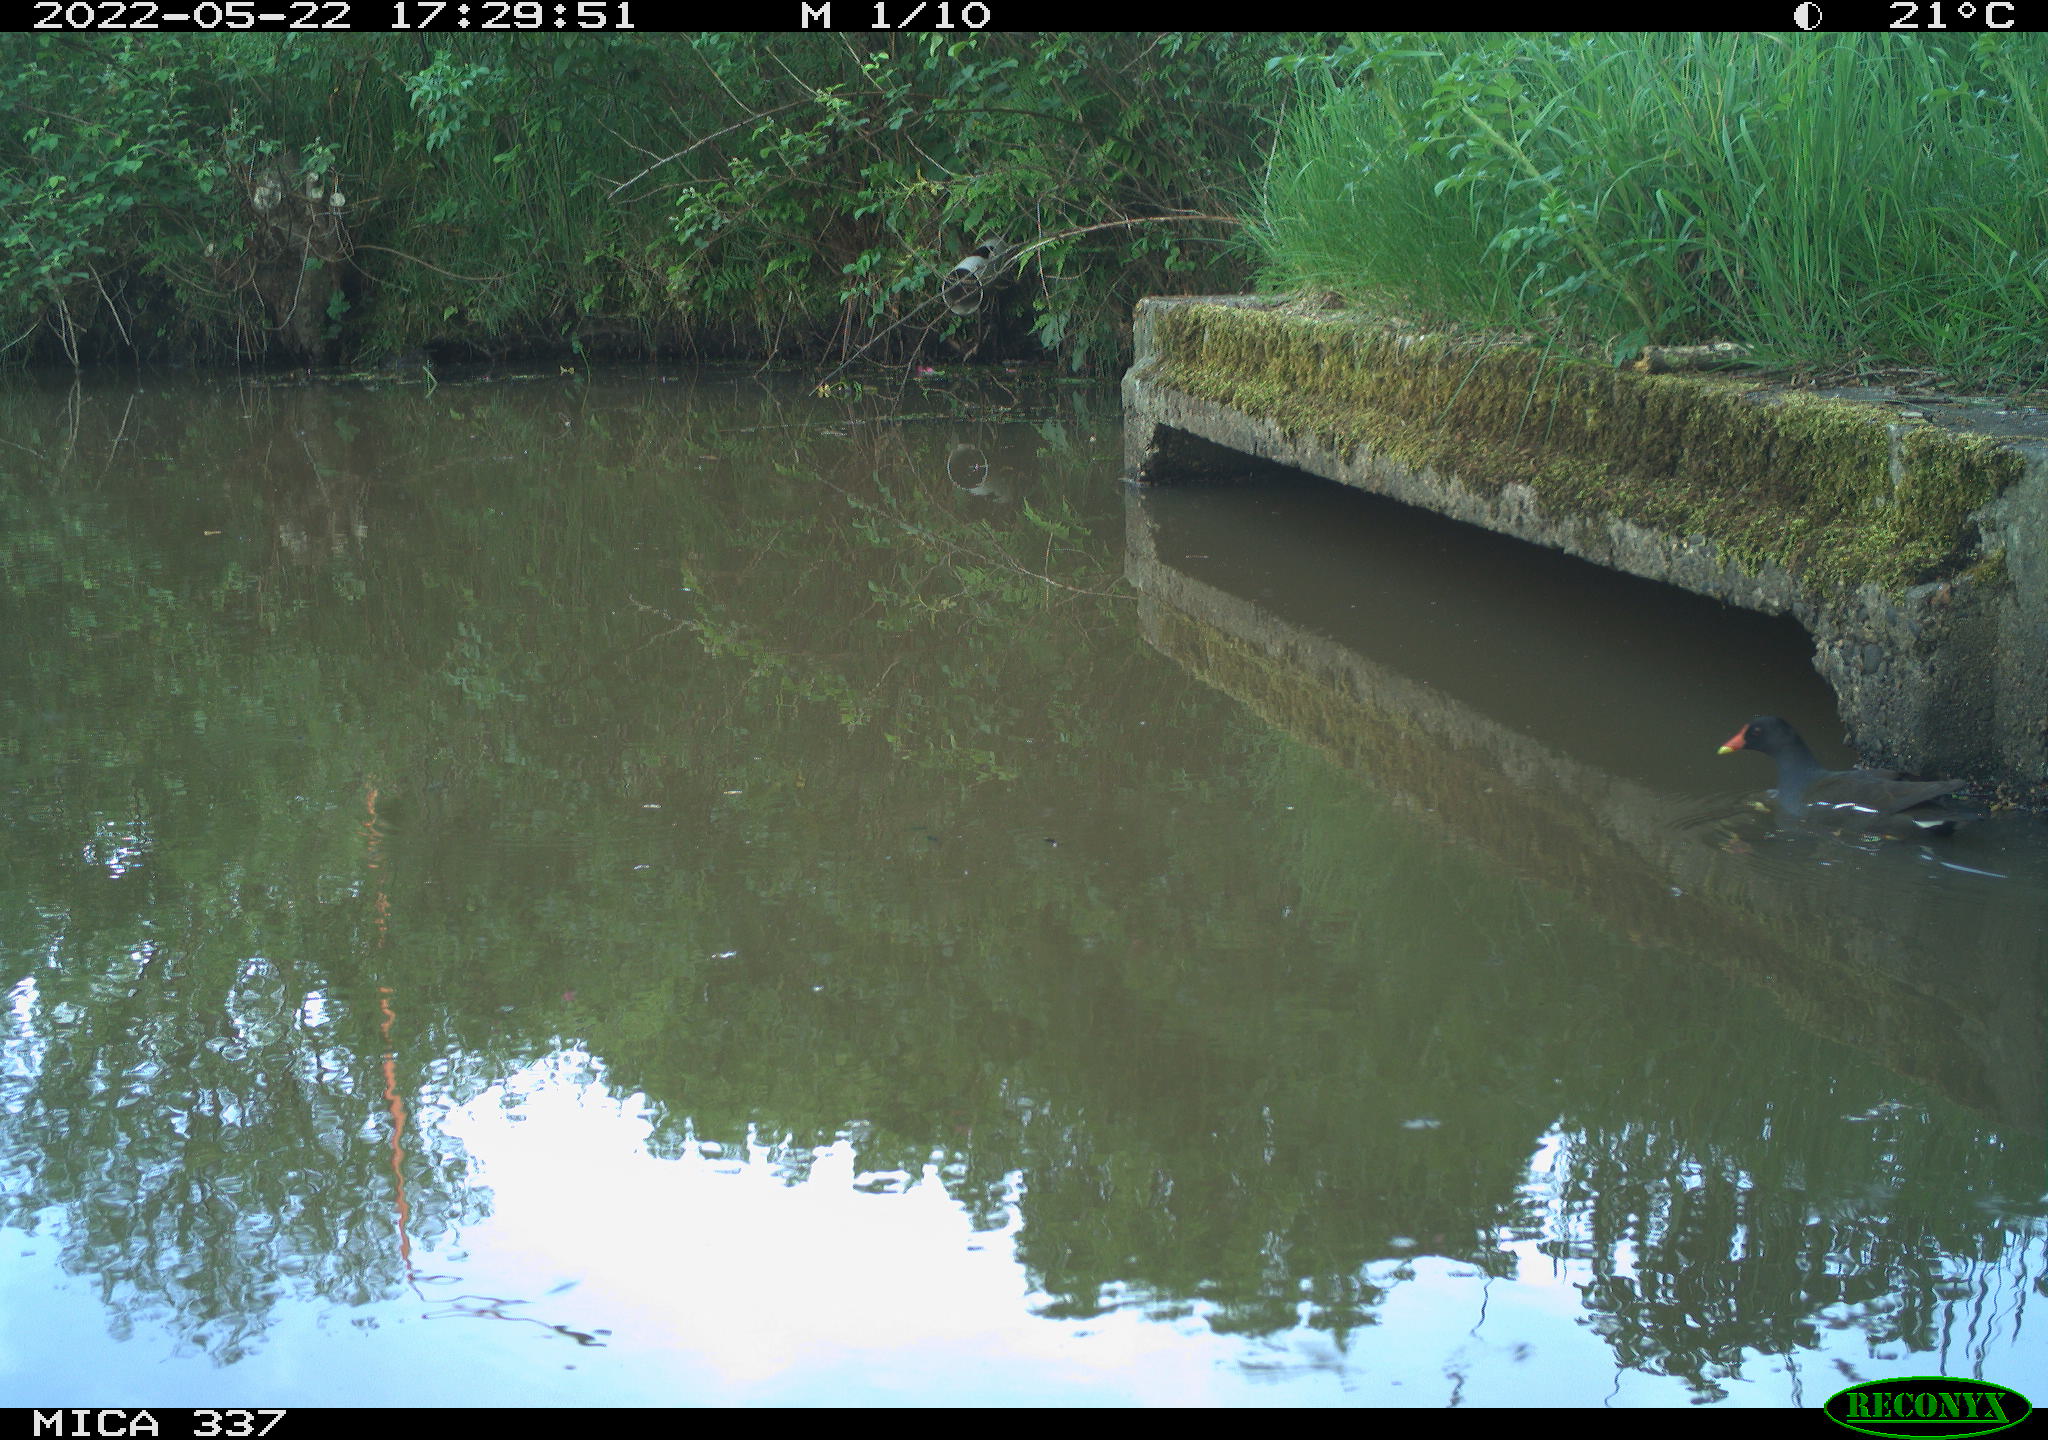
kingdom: Animalia
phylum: Chordata
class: Aves
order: Gruiformes
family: Rallidae
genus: Gallinula
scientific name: Gallinula chloropus
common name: Common moorhen
